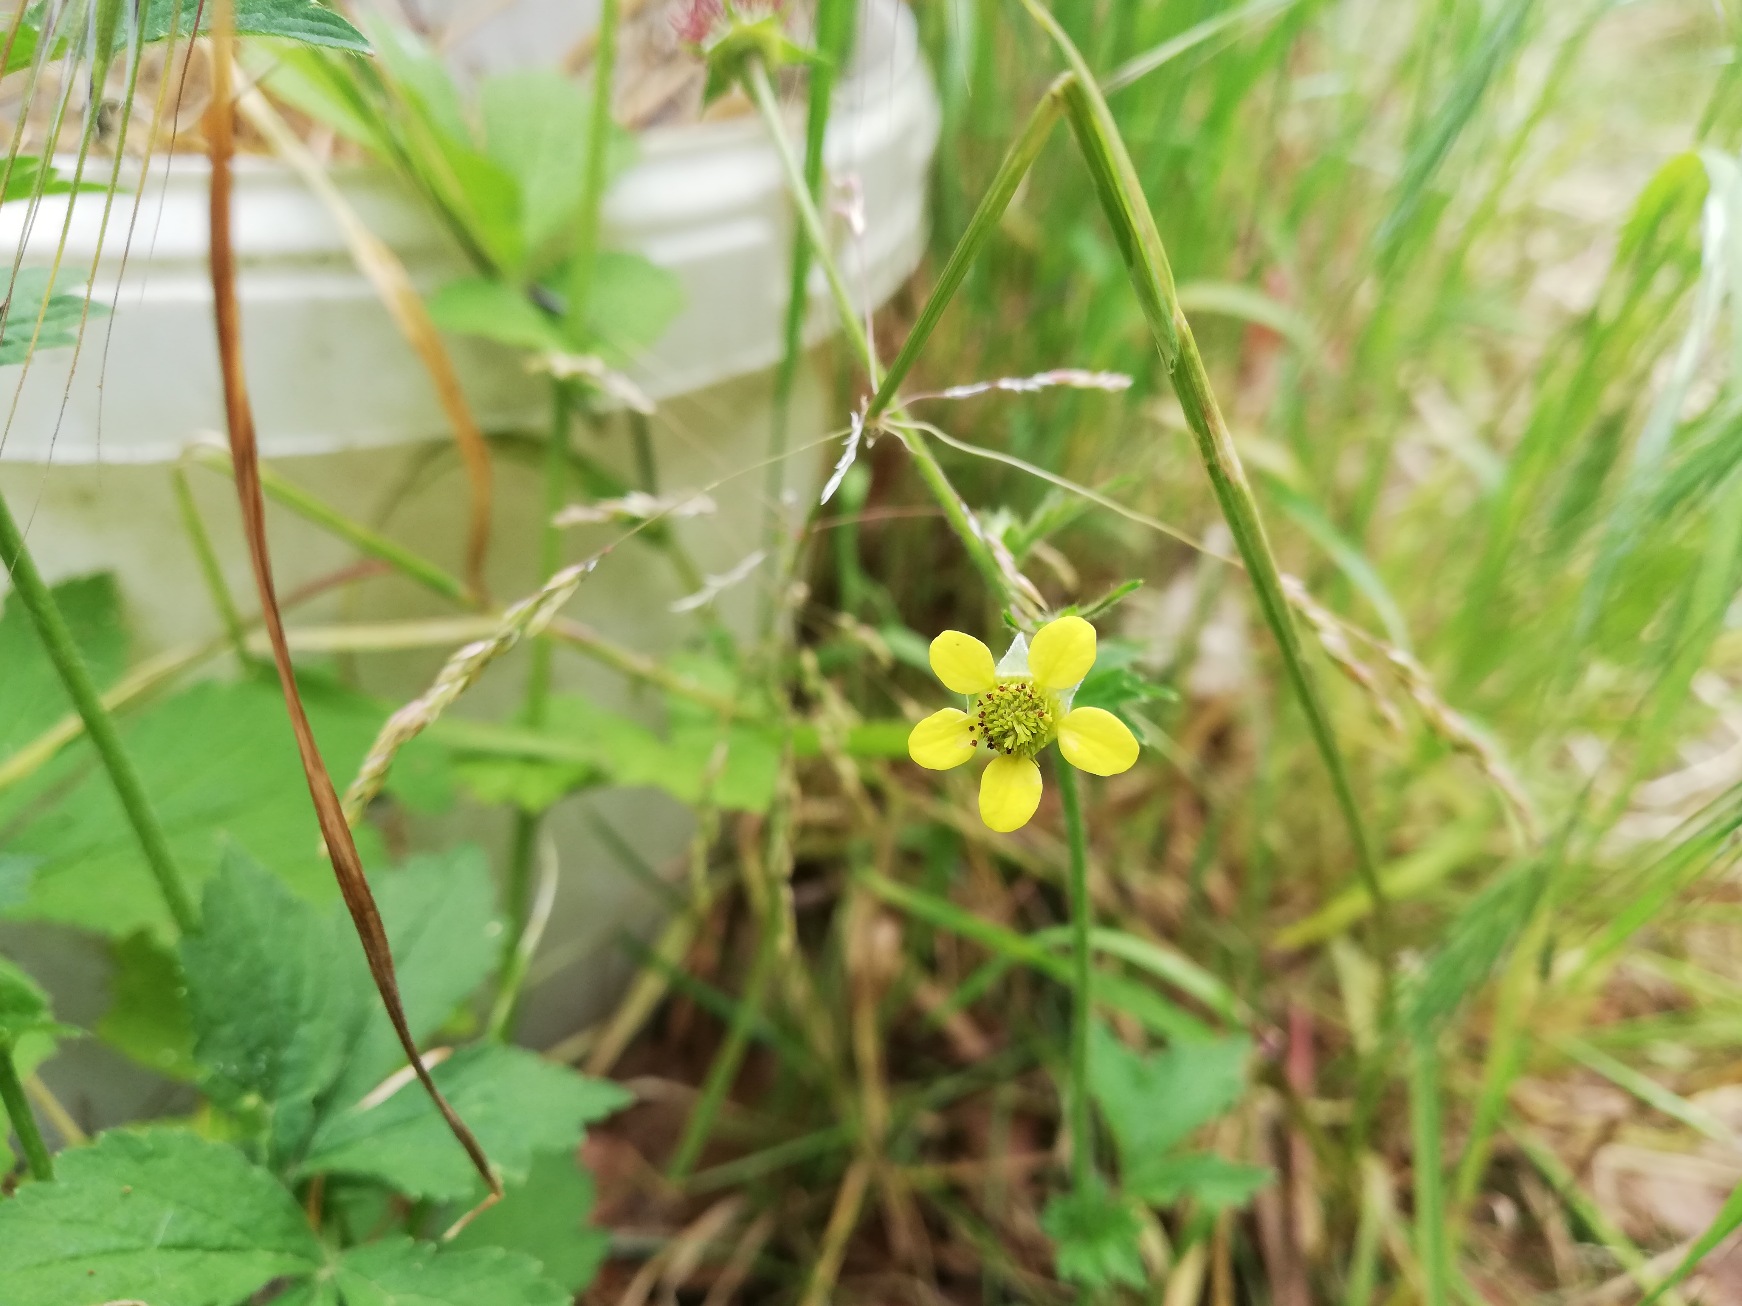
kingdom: Plantae
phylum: Tracheophyta
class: Magnoliopsida
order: Rosales
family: Rosaceae
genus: Geum
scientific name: Geum urbanum
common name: Feber-nellikerod
